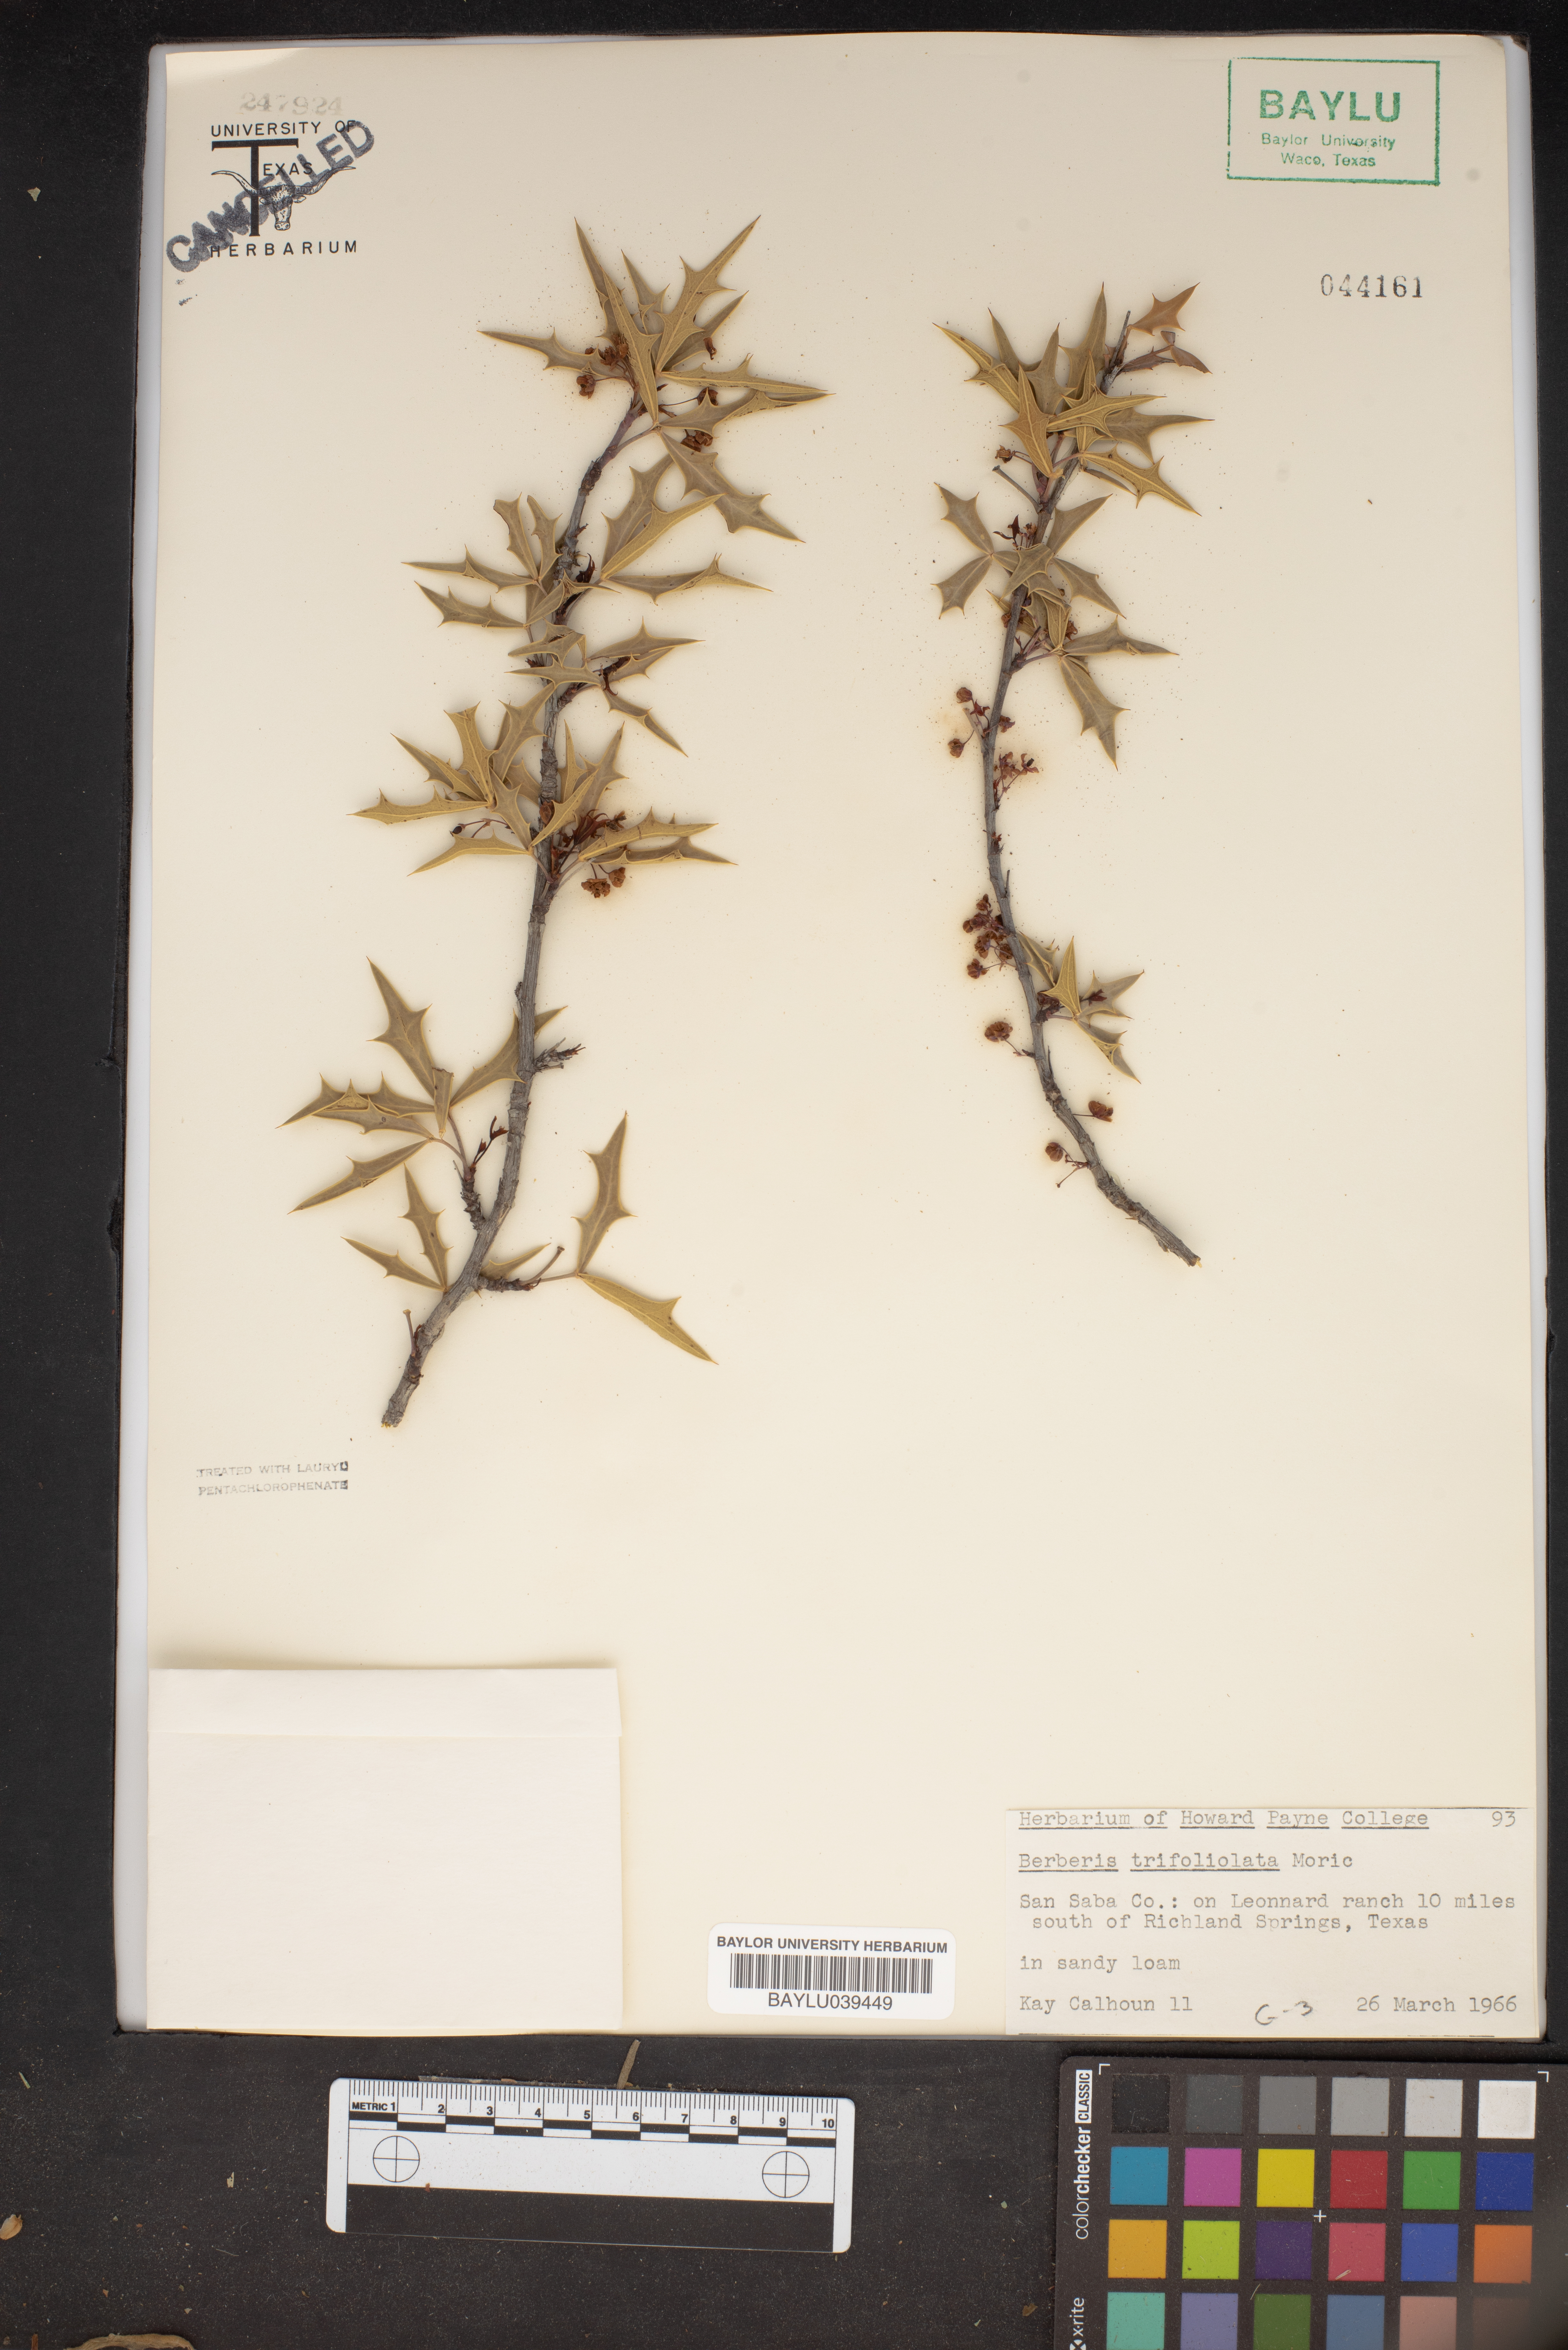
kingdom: Plantae
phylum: Tracheophyta
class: Magnoliopsida
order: Ranunculales
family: Berberidaceae
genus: Alloberberis
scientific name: Alloberberis trifoliolata
